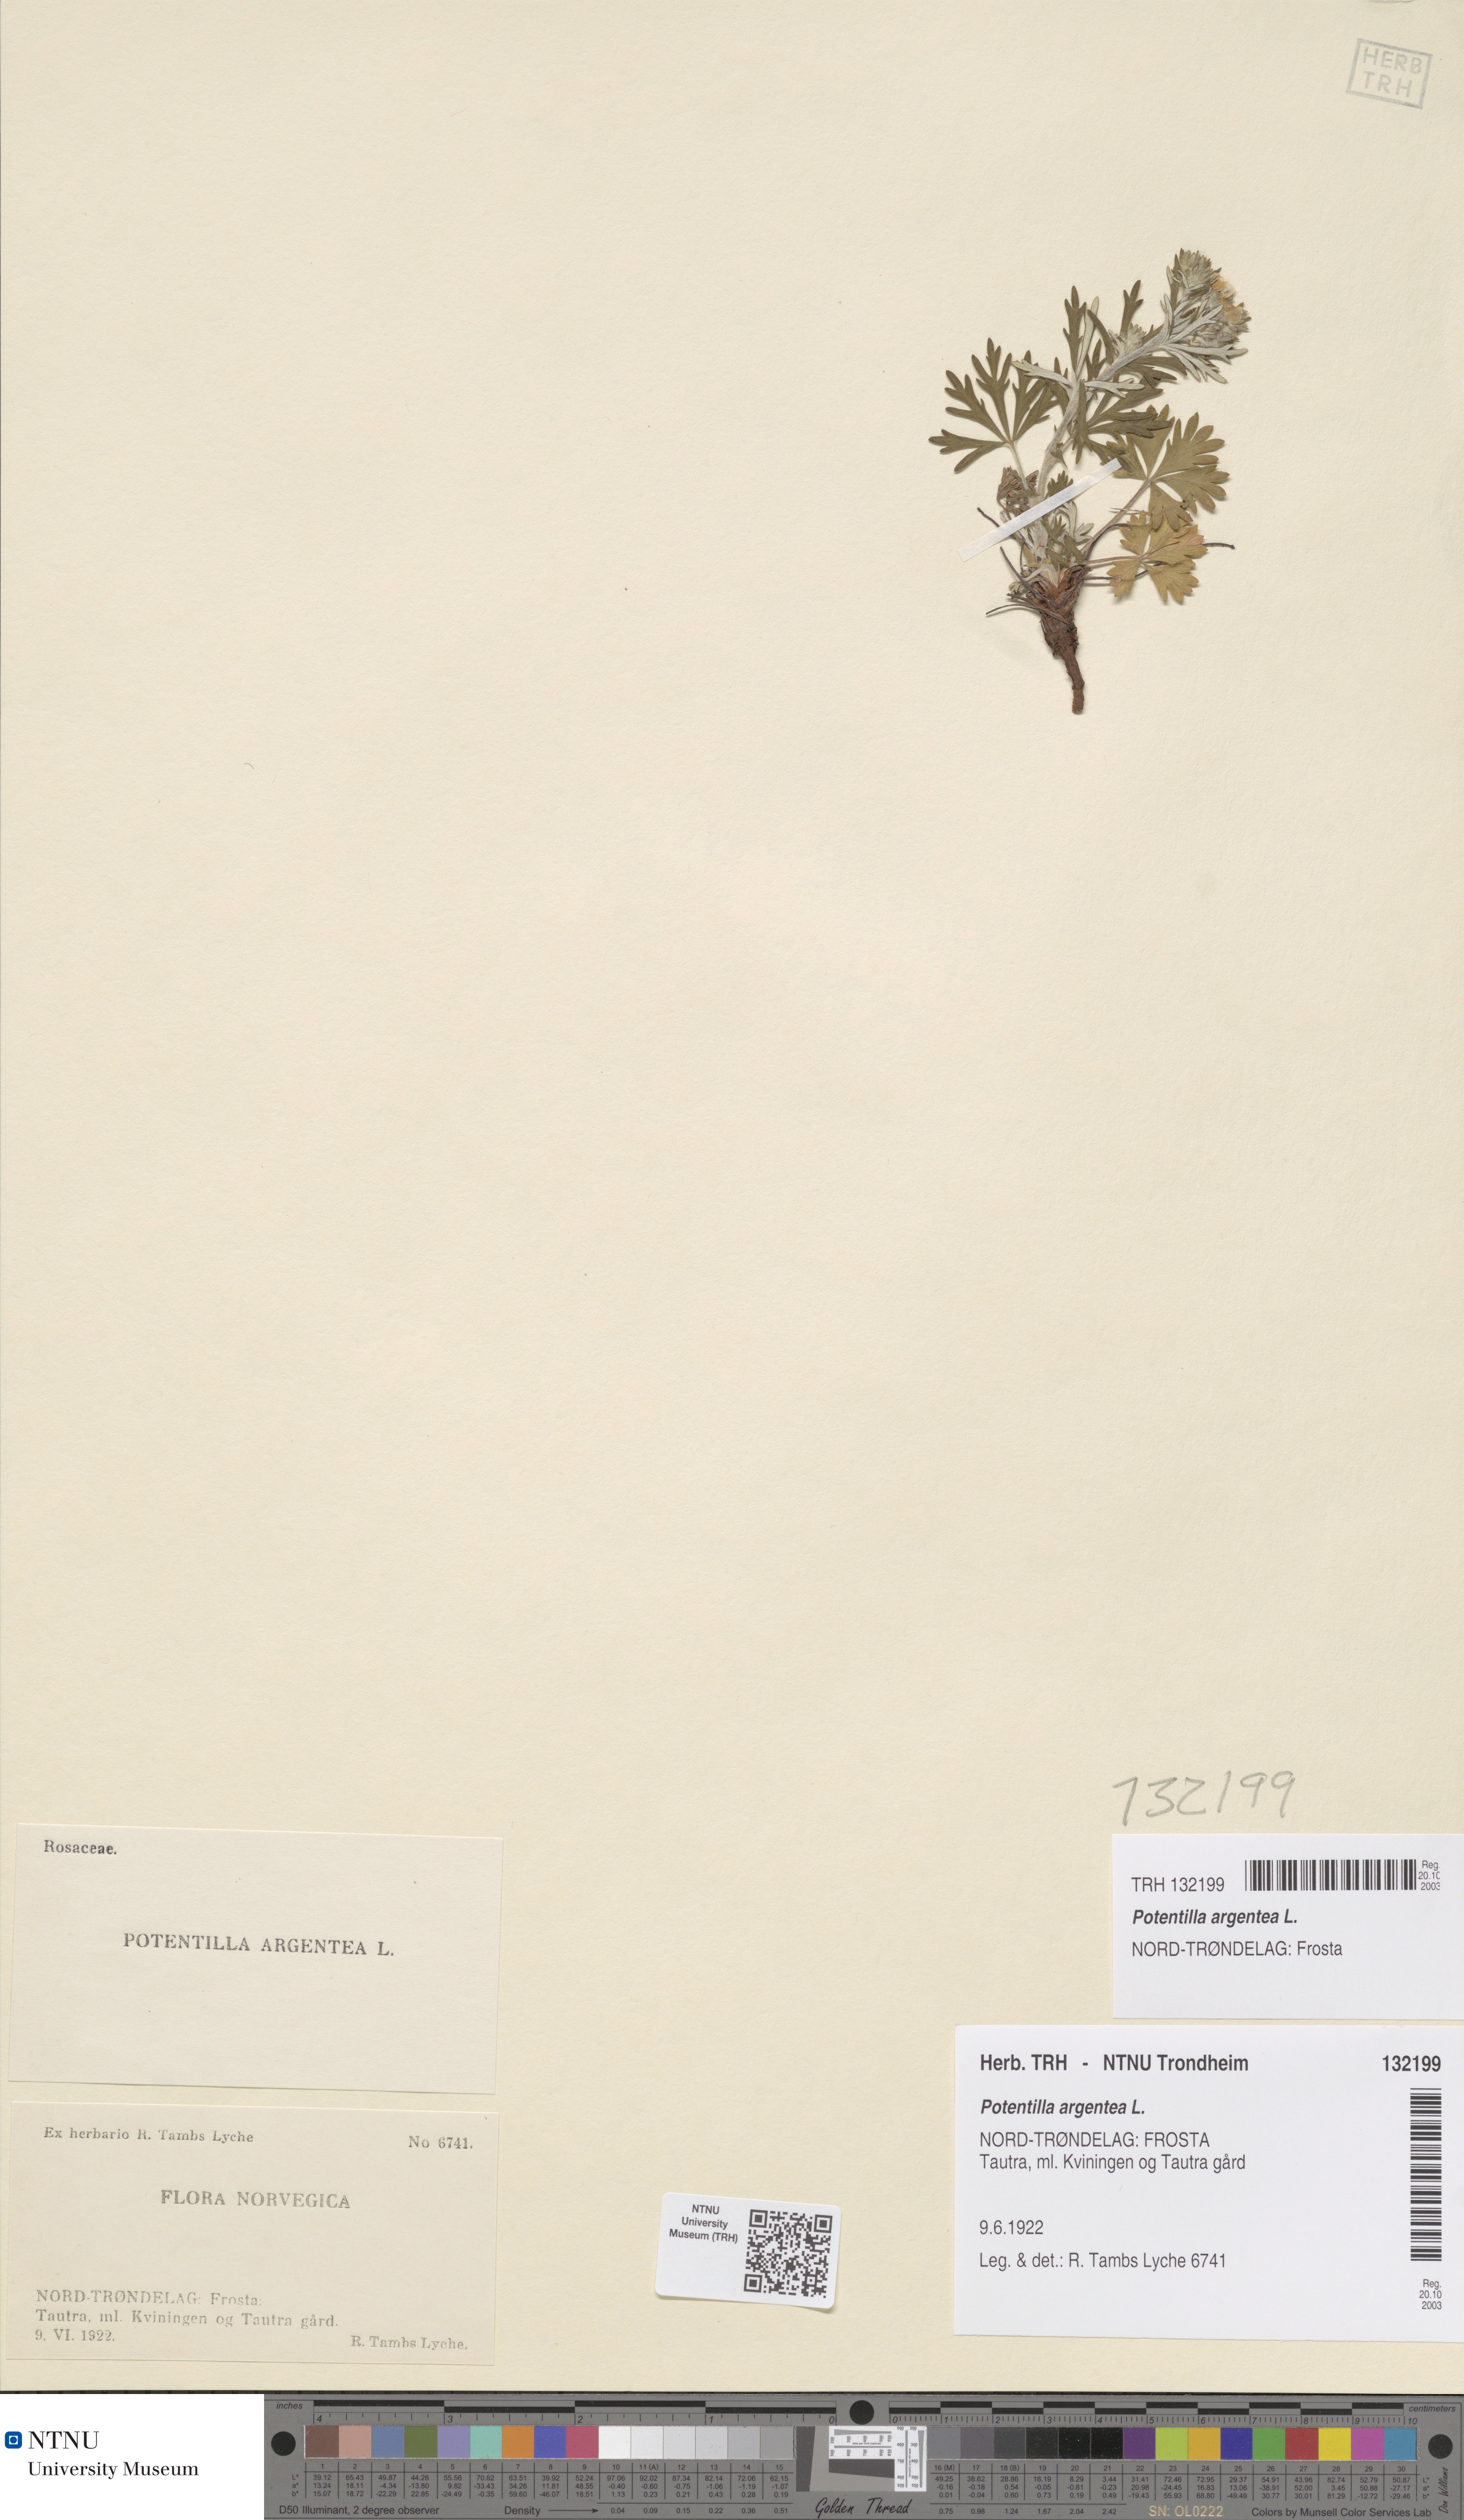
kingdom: Plantae
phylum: Tracheophyta
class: Magnoliopsida
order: Rosales
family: Rosaceae
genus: Potentilla
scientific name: Potentilla argentea
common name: Hoary cinquefoil
